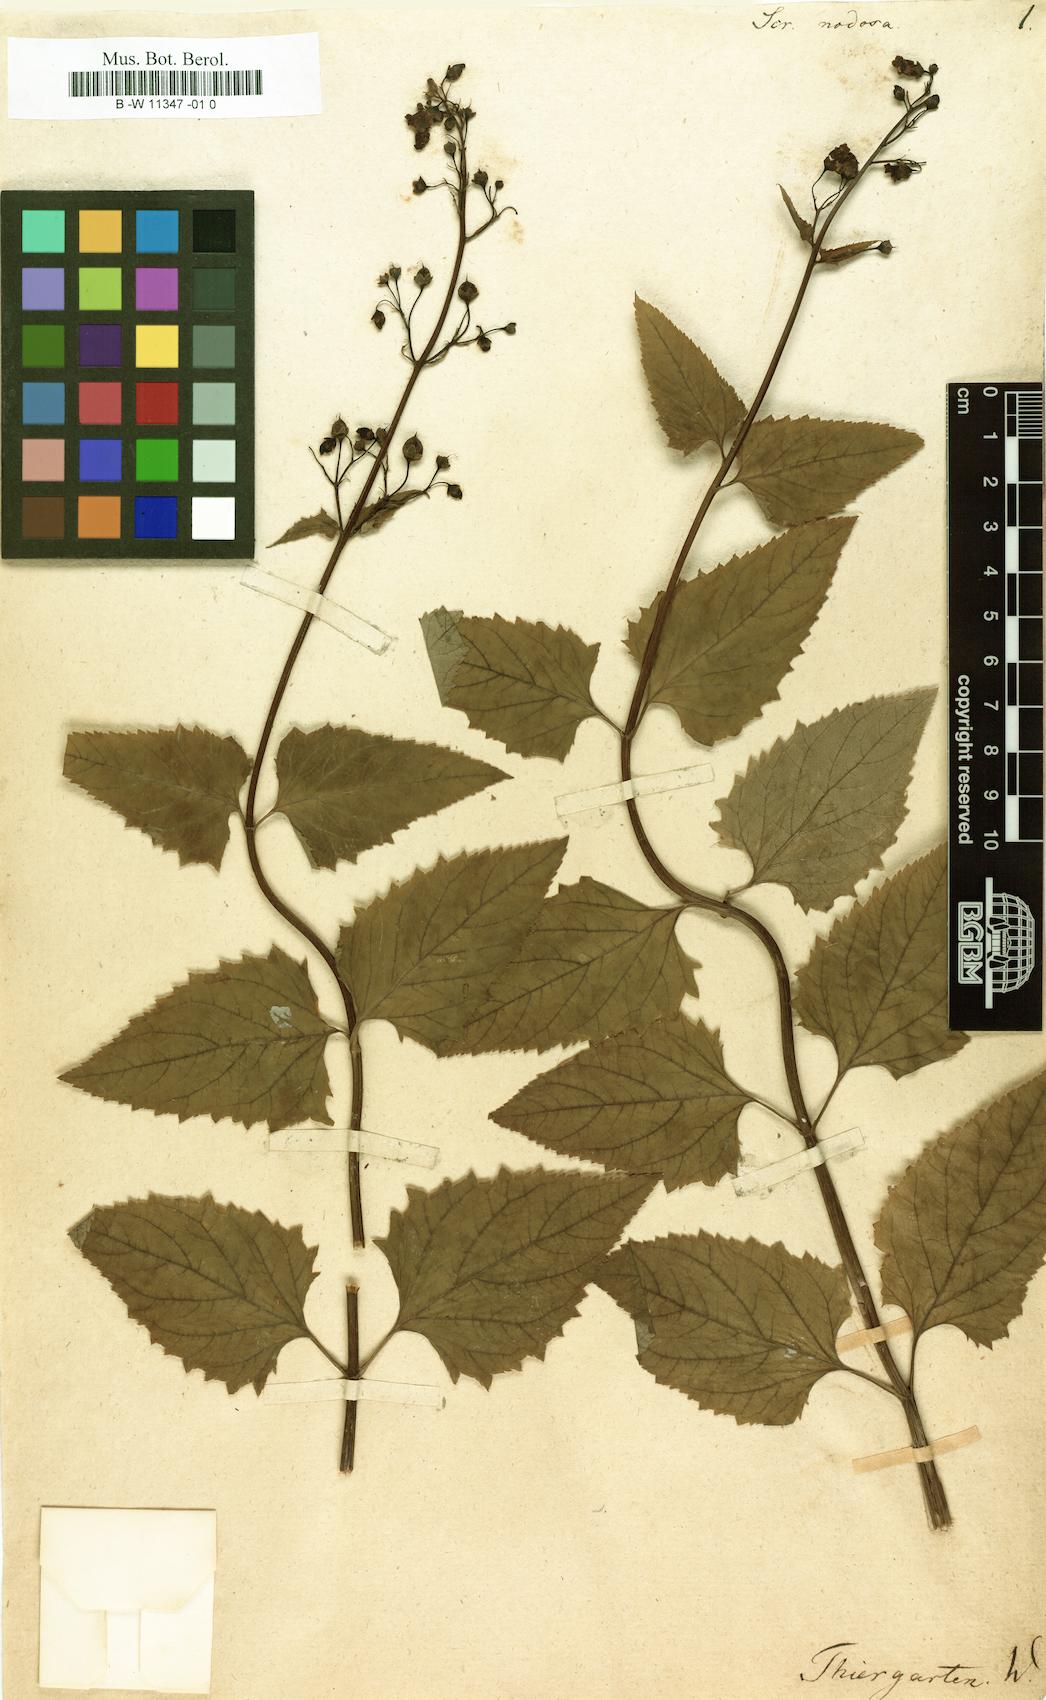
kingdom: Plantae
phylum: Tracheophyta
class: Magnoliopsida
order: Lamiales
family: Scrophulariaceae
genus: Scrophularia
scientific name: Scrophularia nodosa
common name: Common figwort
